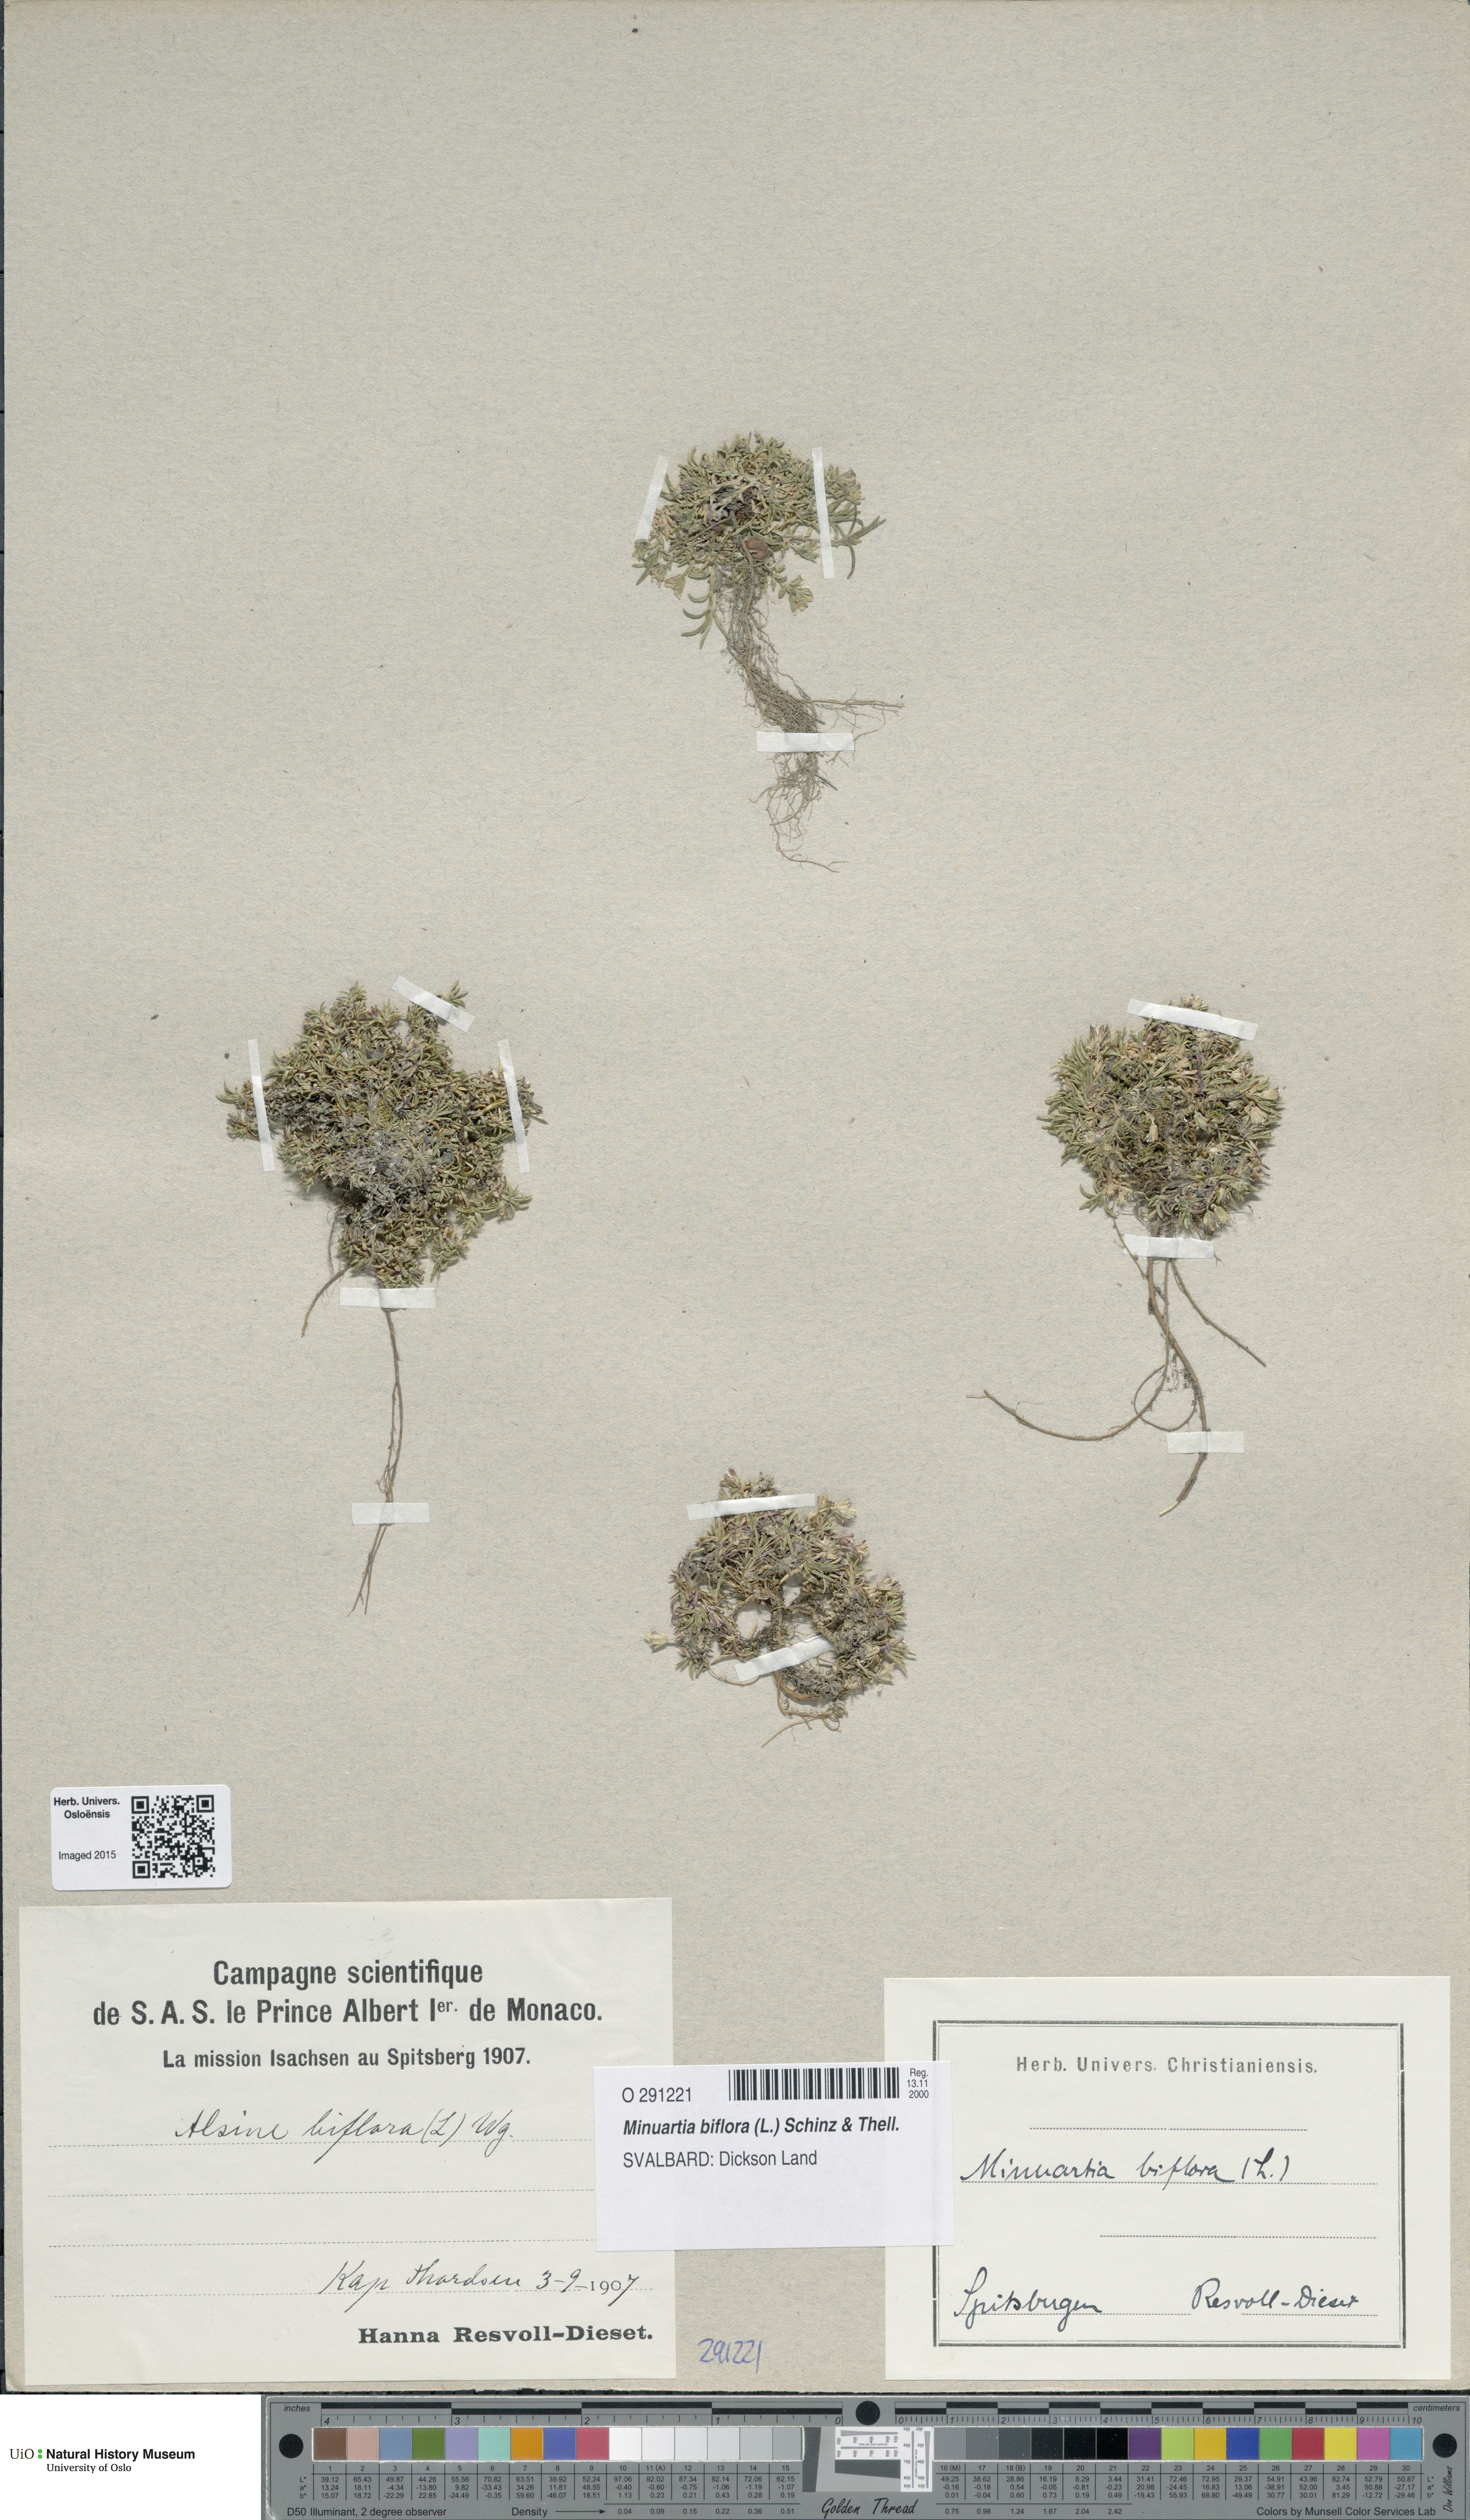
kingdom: Plantae
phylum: Tracheophyta
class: Magnoliopsida
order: Caryophyllales
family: Caryophyllaceae
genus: Cherleria
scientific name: Cherleria biflora
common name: Mountain sandwort
